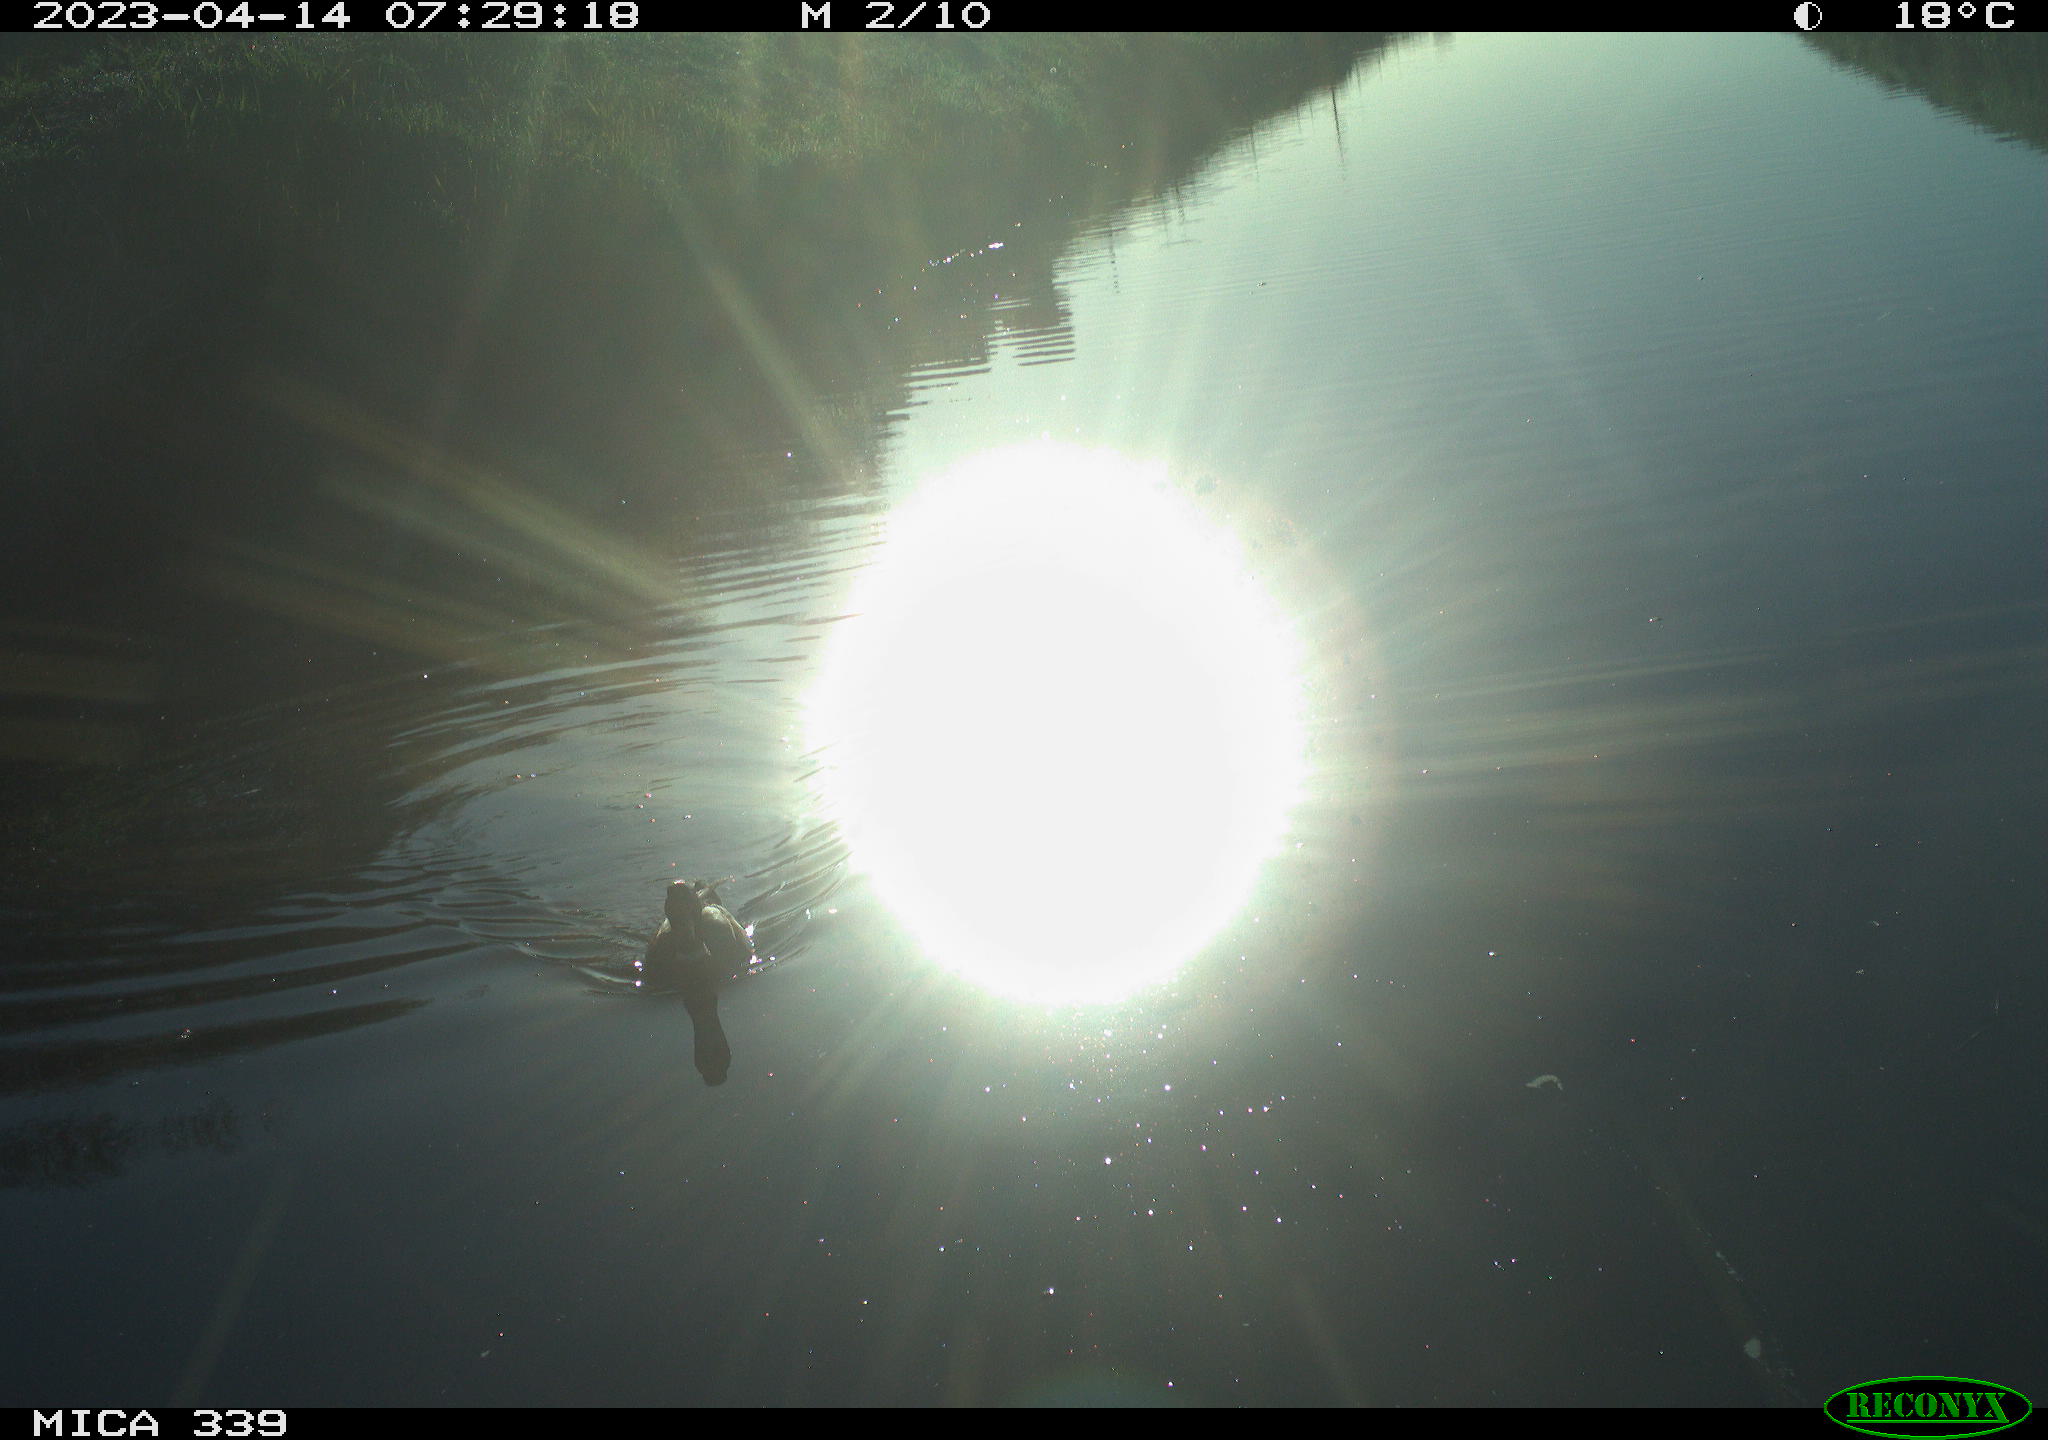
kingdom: Animalia
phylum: Chordata
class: Aves
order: Gruiformes
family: Rallidae
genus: Gallinula
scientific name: Gallinula chloropus
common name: Common moorhen
